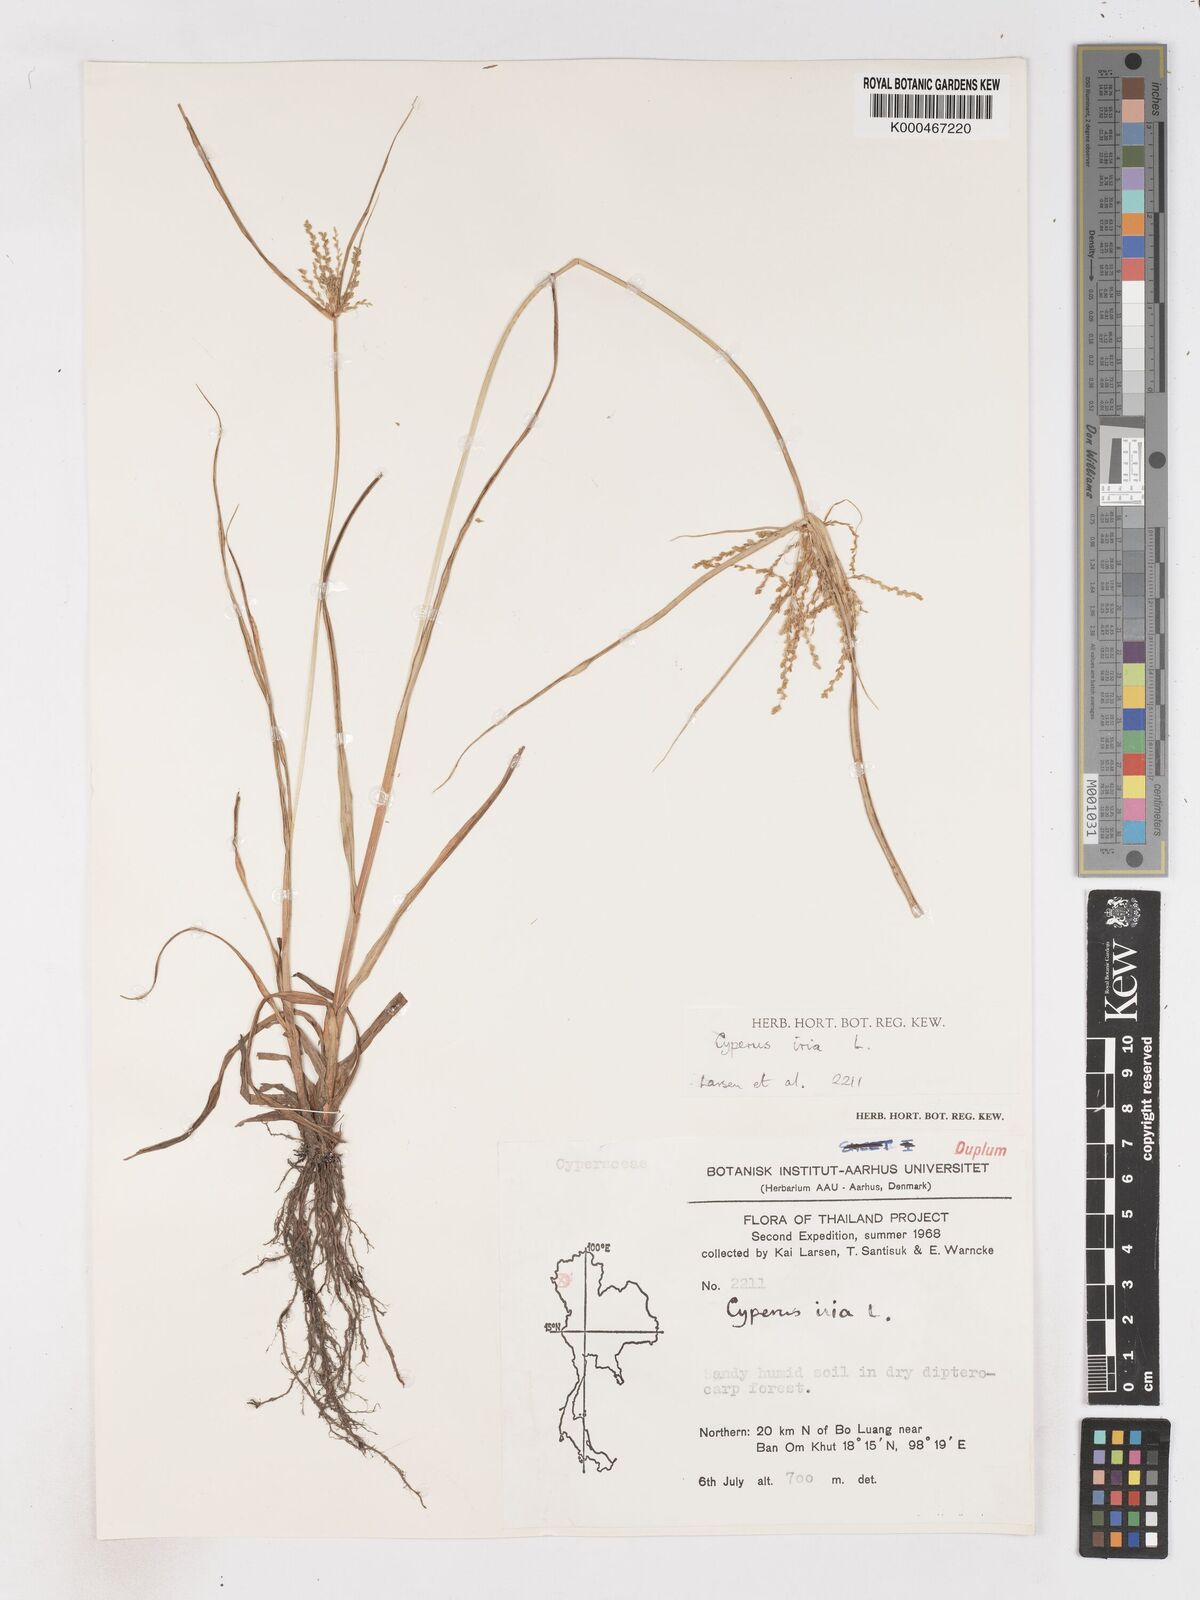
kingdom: Plantae
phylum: Tracheophyta
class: Liliopsida
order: Poales
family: Cyperaceae
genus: Cyperus
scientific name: Cyperus iria
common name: Ricefield flatsedge
